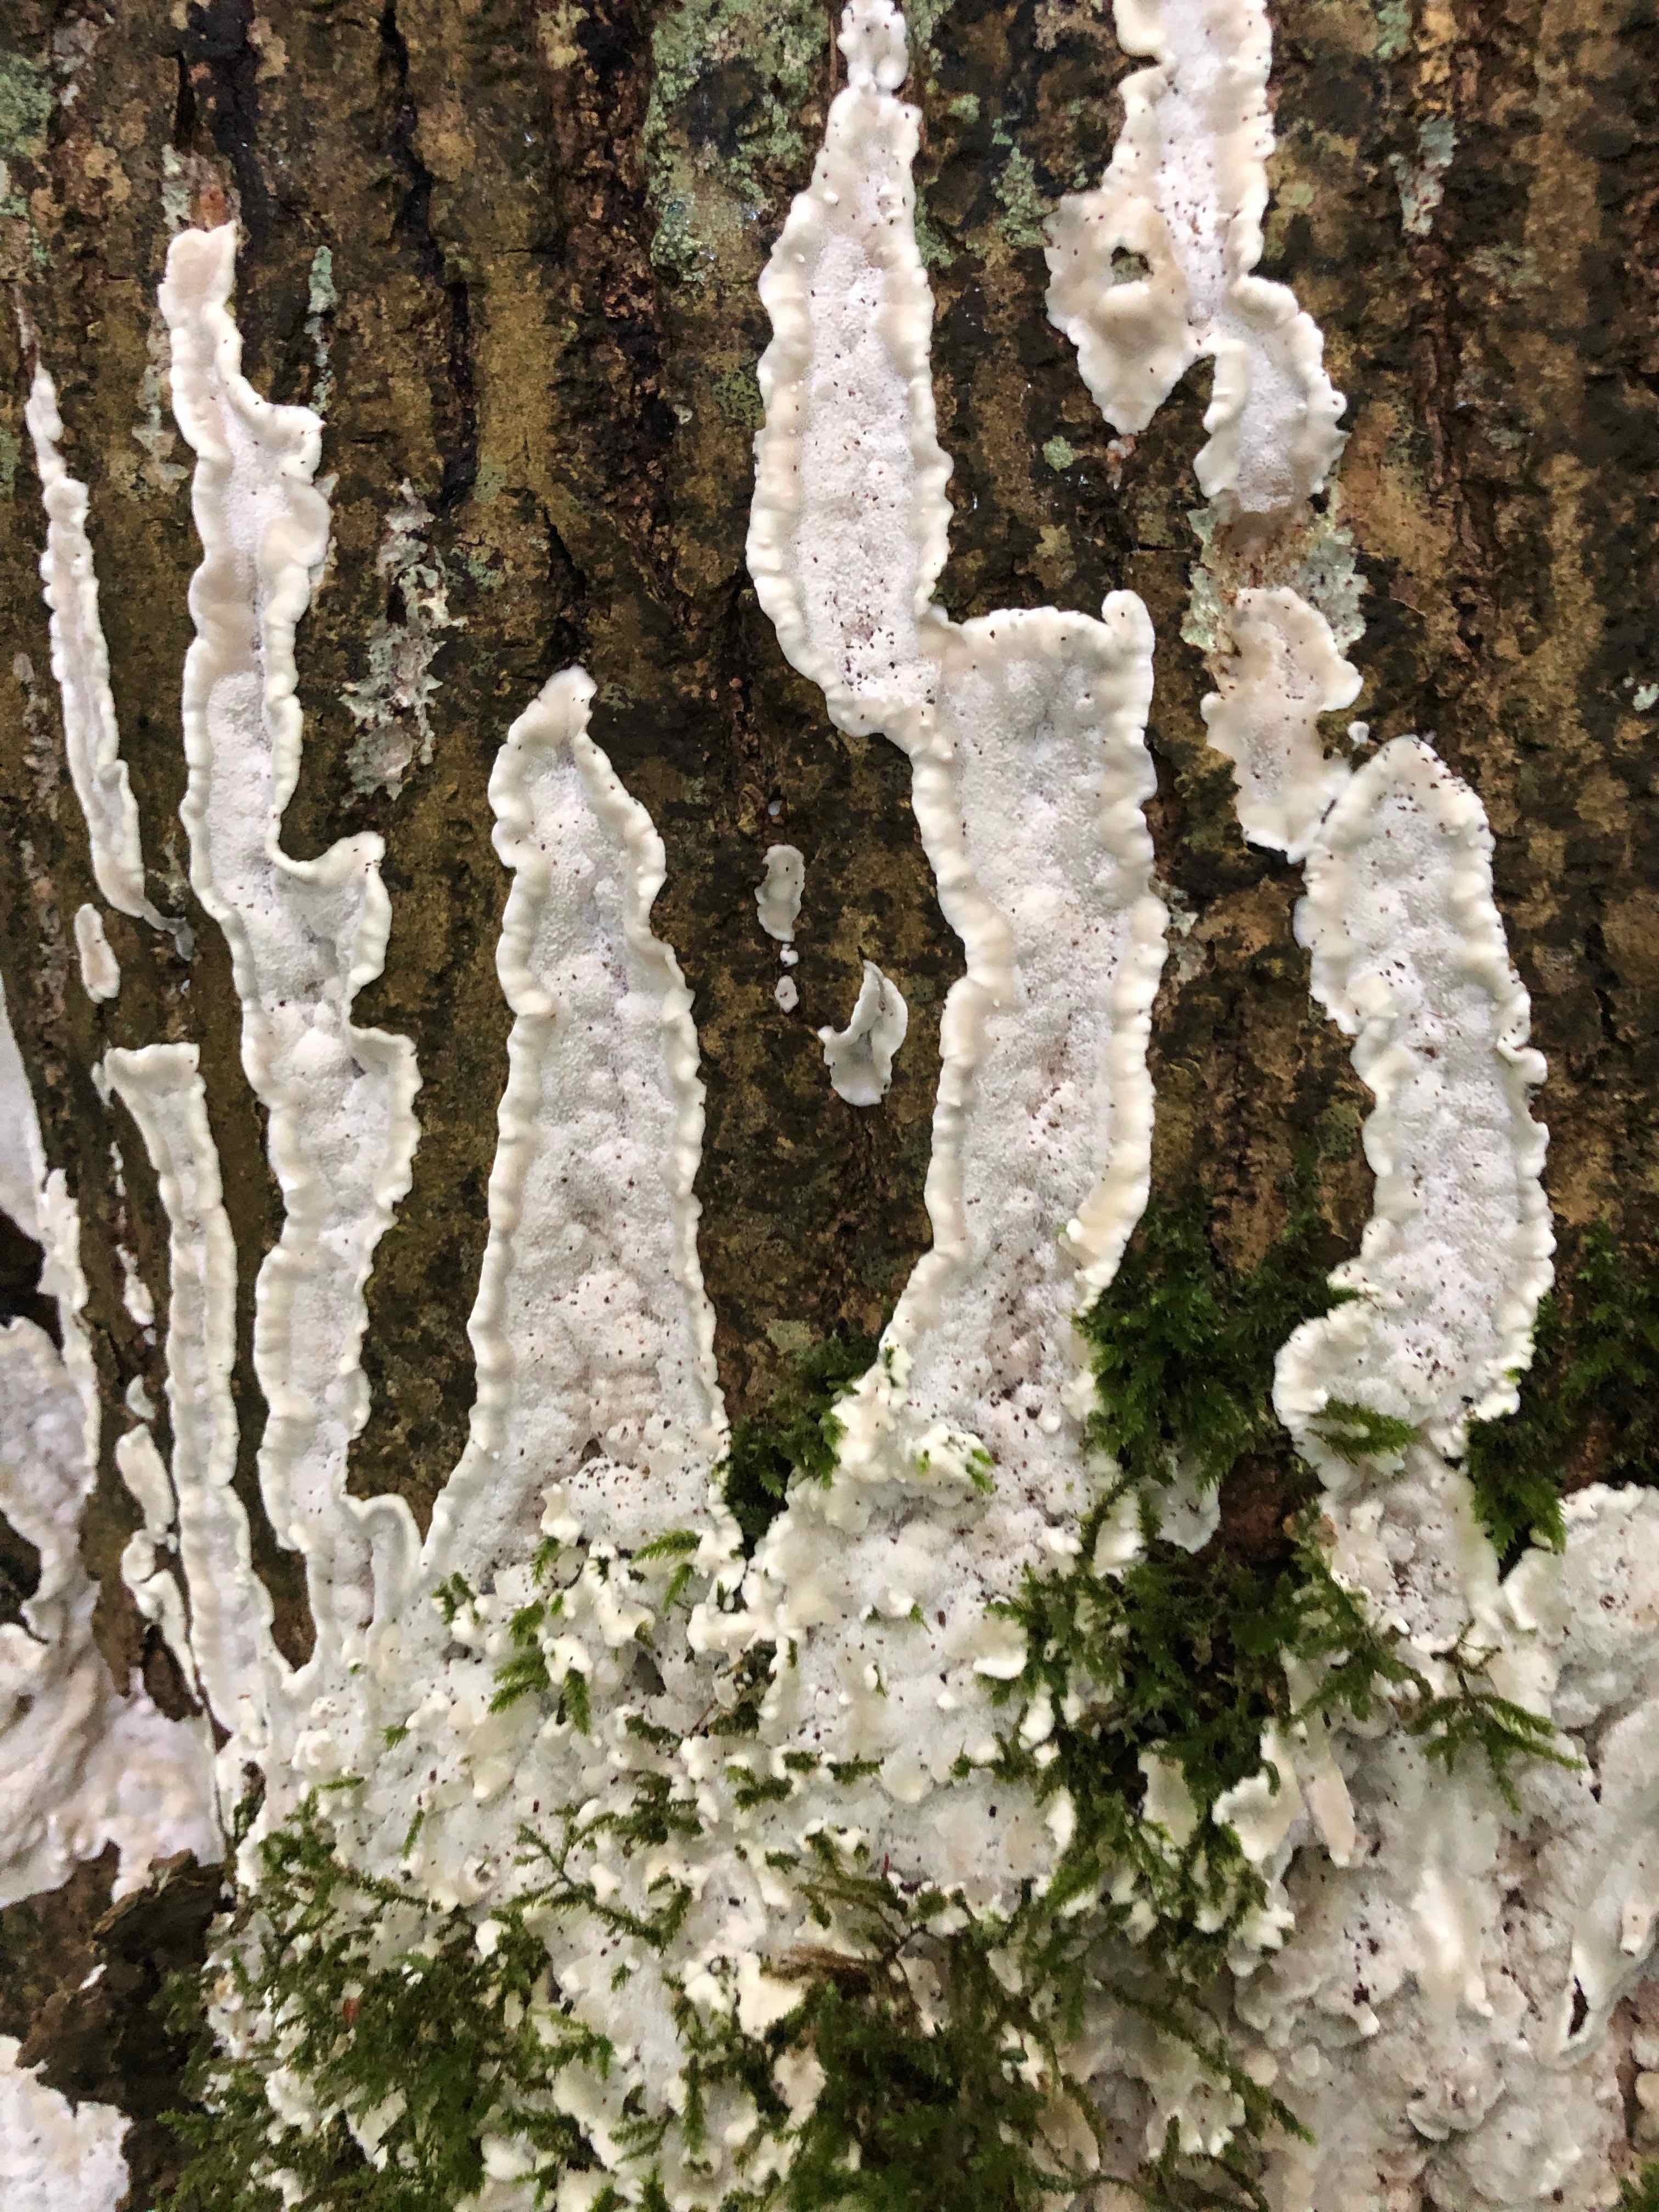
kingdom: Fungi
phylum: Basidiomycota
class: Agaricomycetes
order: Polyporales
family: Meruliaceae
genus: Physisporinus
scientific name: Physisporinus vitreus
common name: mastesvamp
